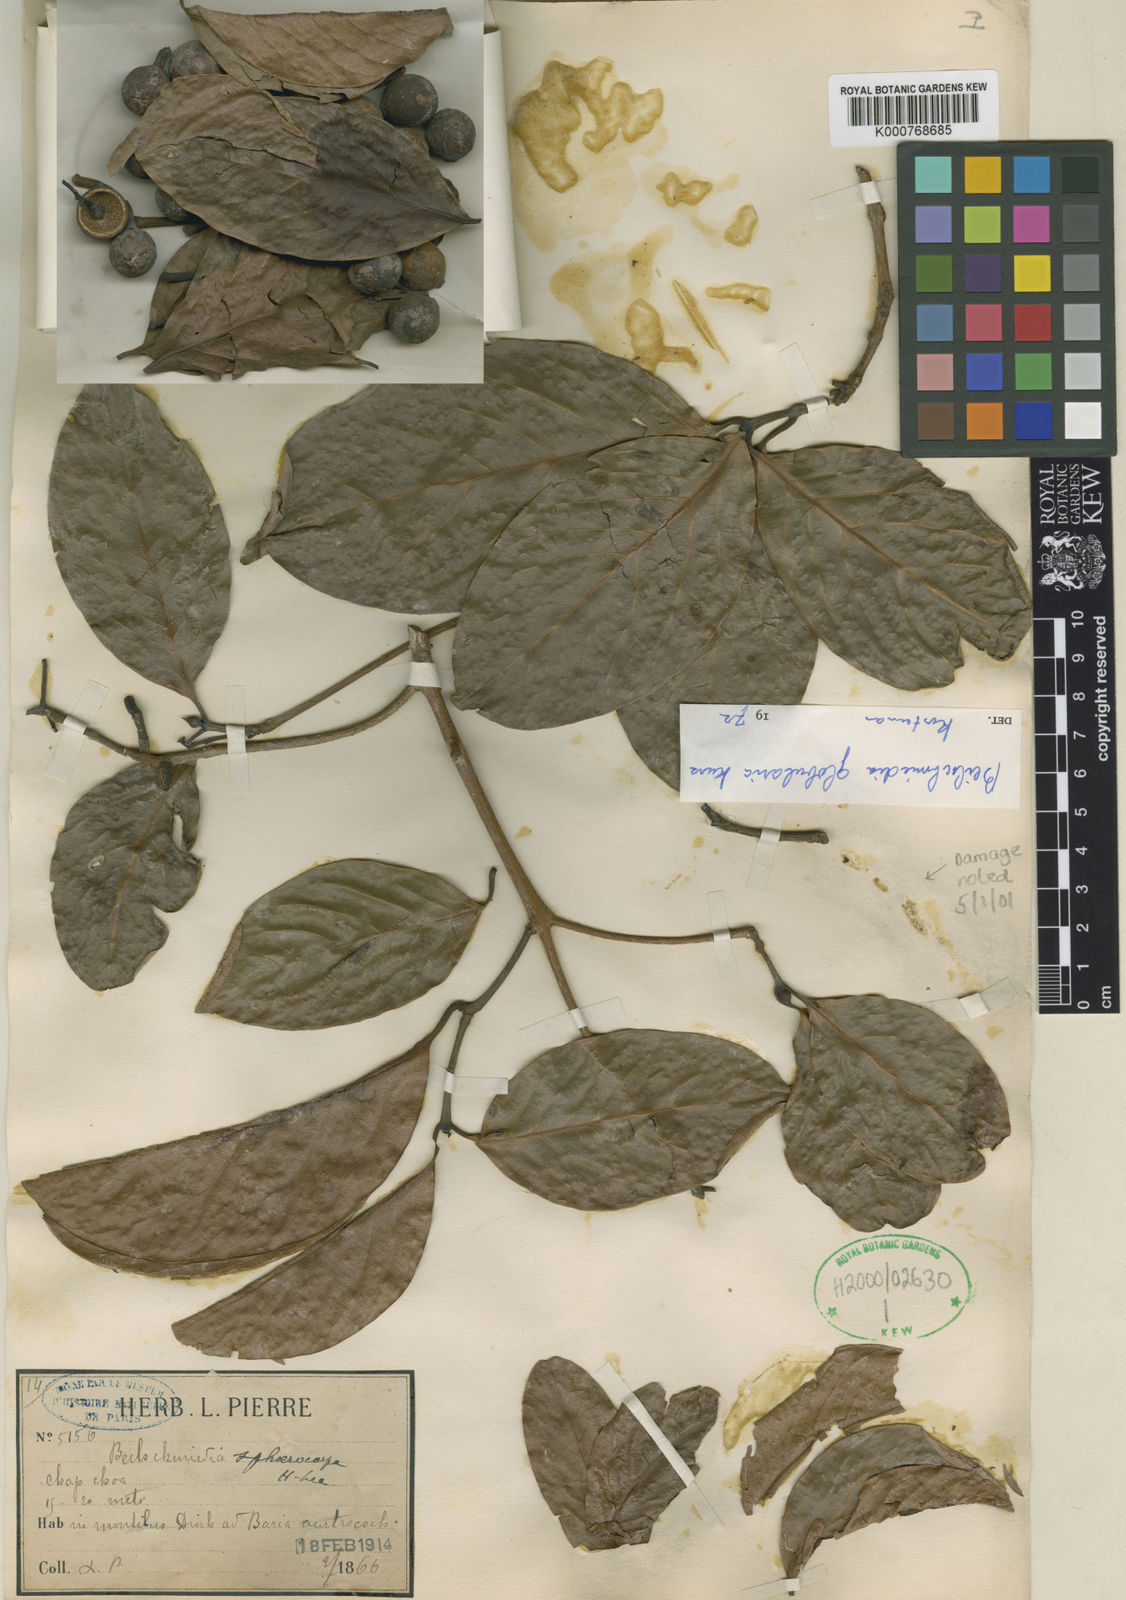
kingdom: Plantae
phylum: Tracheophyta
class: Magnoliopsida
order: Laurales
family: Lauraceae
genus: Beilschmiedia
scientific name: Beilschmiedia lucidula
